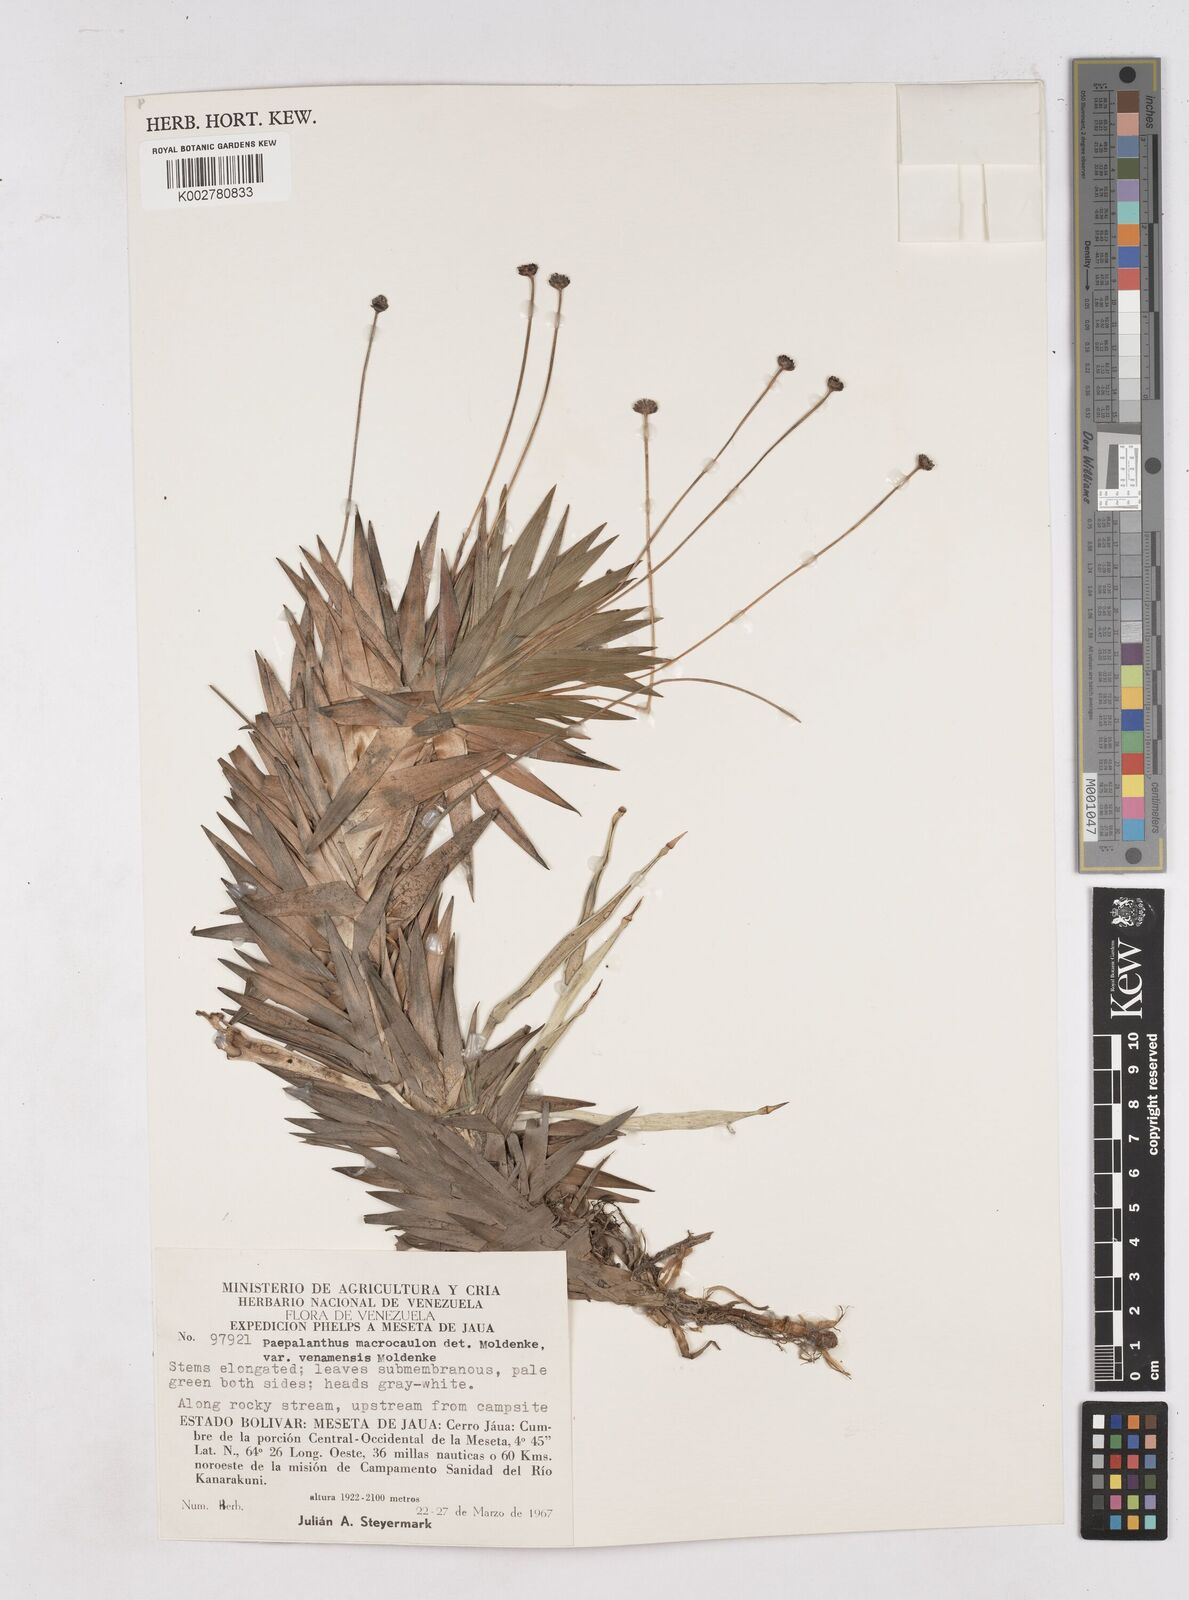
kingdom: Plantae
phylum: Tracheophyta
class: Liliopsida
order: Poales
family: Eriocaulaceae
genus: Paepalanthus
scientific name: Paepalanthus schomburgkii
